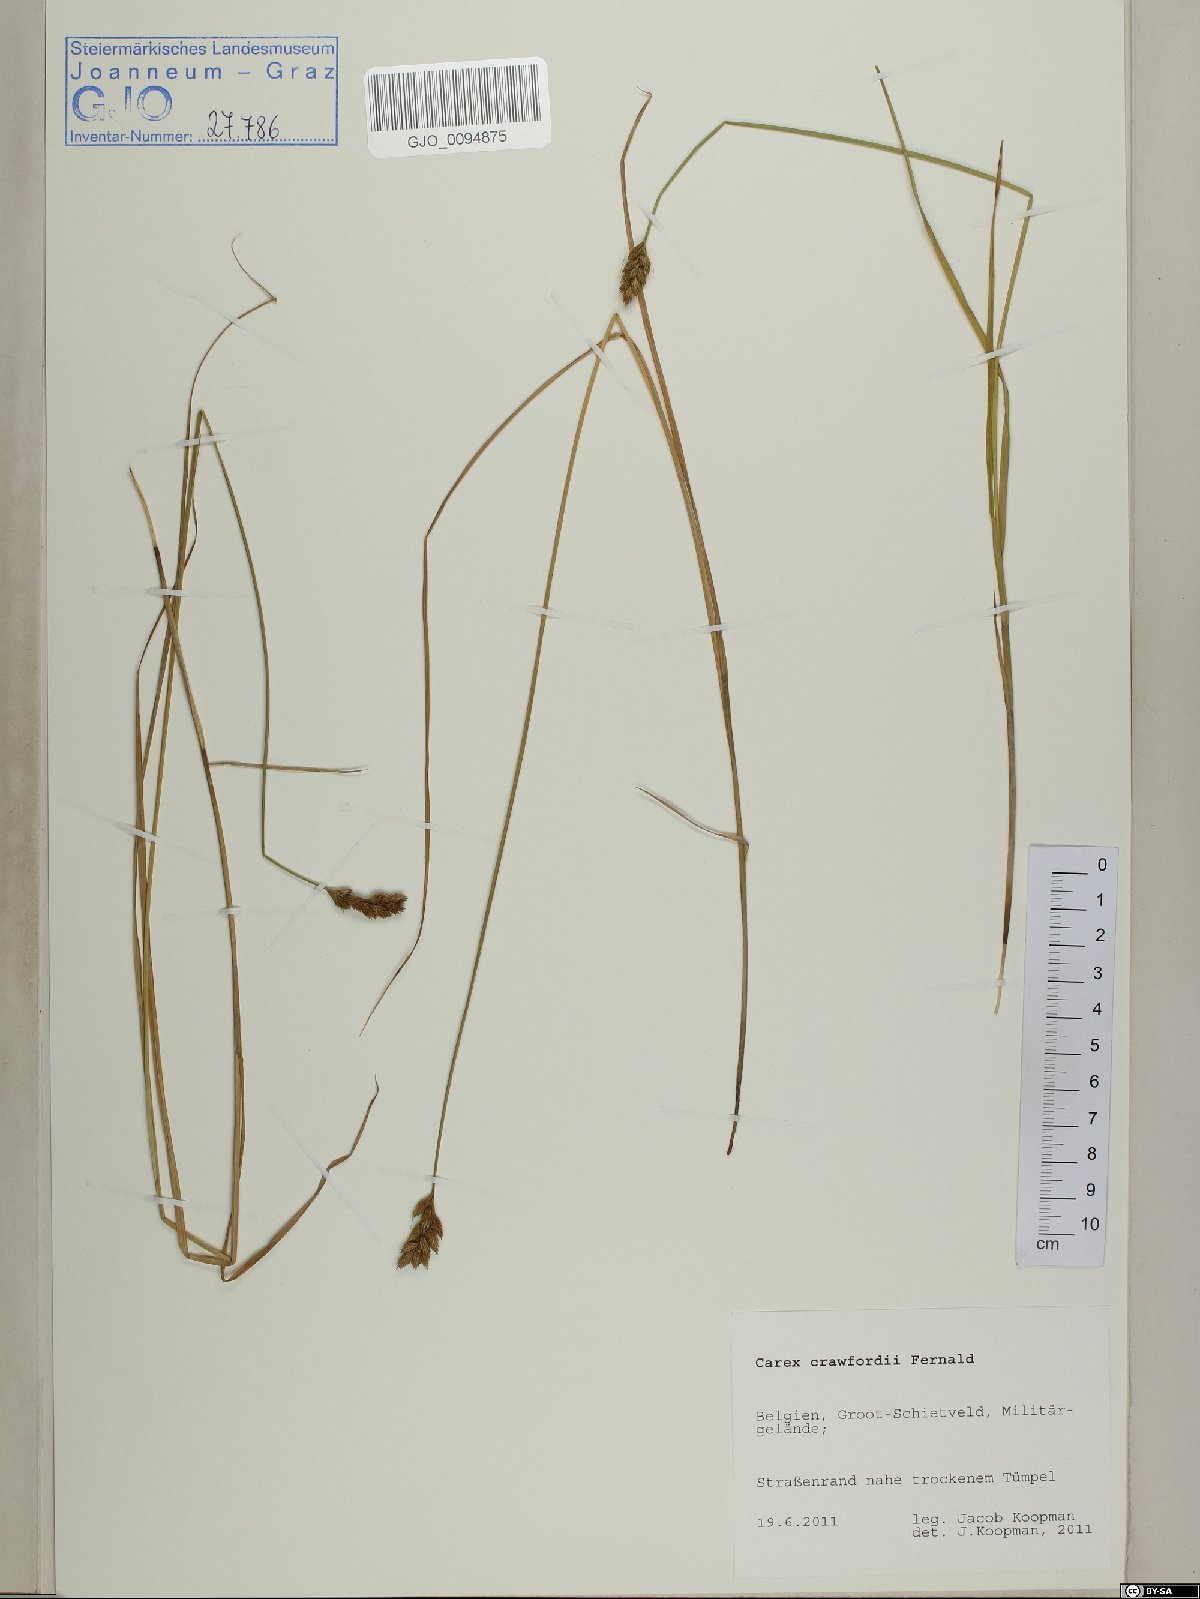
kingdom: Plantae
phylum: Tracheophyta
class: Liliopsida
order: Poales
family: Cyperaceae
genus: Carex
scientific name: Carex crawfordii
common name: Crawford's sedge
